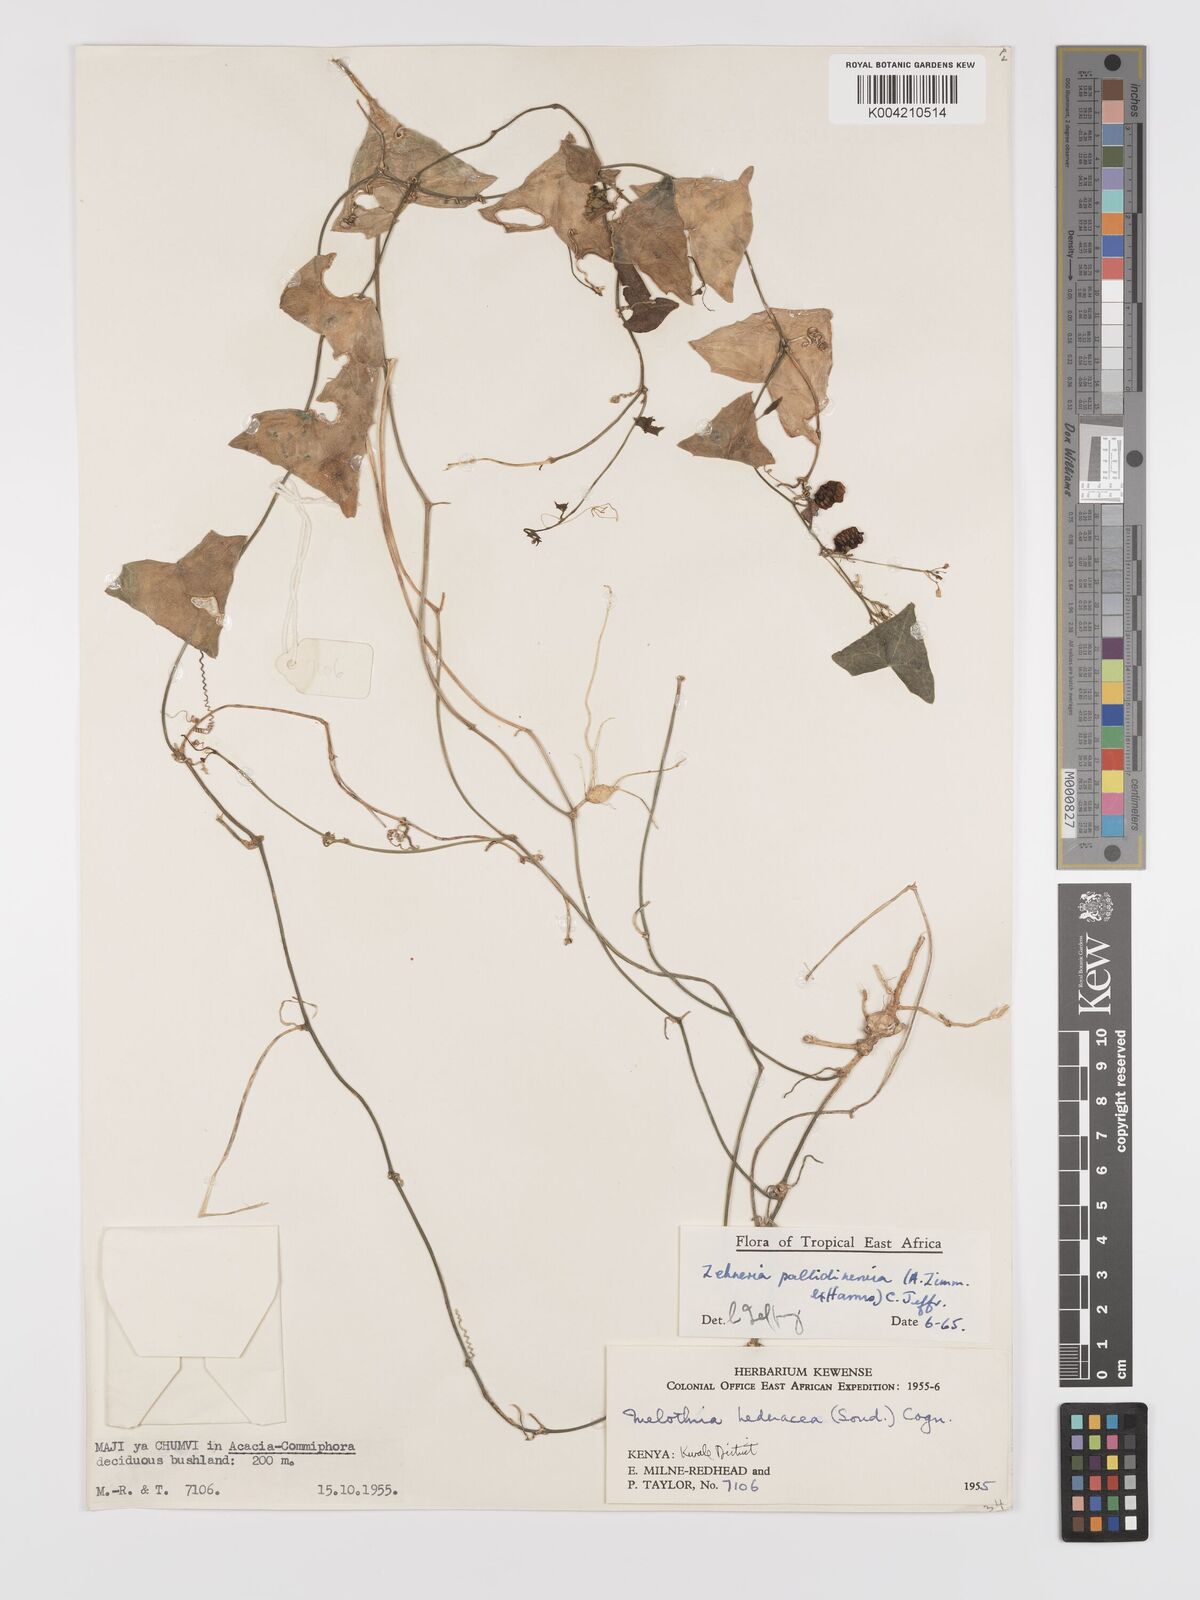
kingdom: Plantae
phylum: Tracheophyta
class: Magnoliopsida
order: Cucurbitales
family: Cucurbitaceae
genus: Zehneria
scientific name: Zehneria pallidinervia
